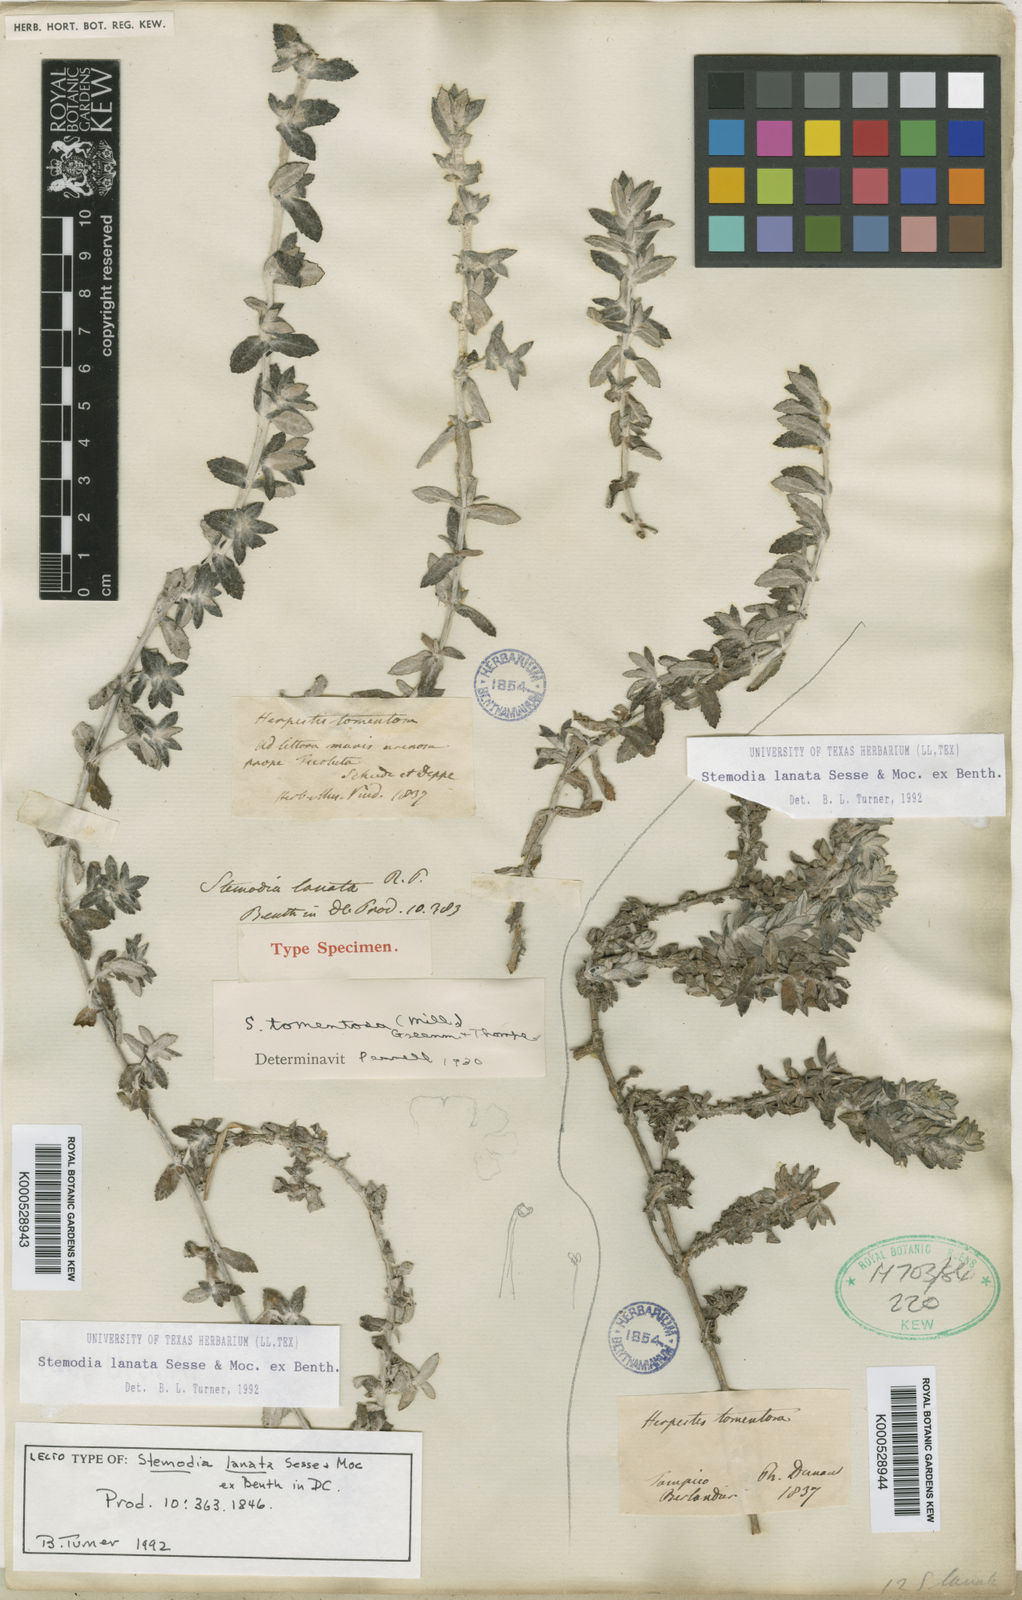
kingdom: Plantae
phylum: Tracheophyta
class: Magnoliopsida
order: Lamiales
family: Plantaginaceae
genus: Stemodia
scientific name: Stemodia lanata
